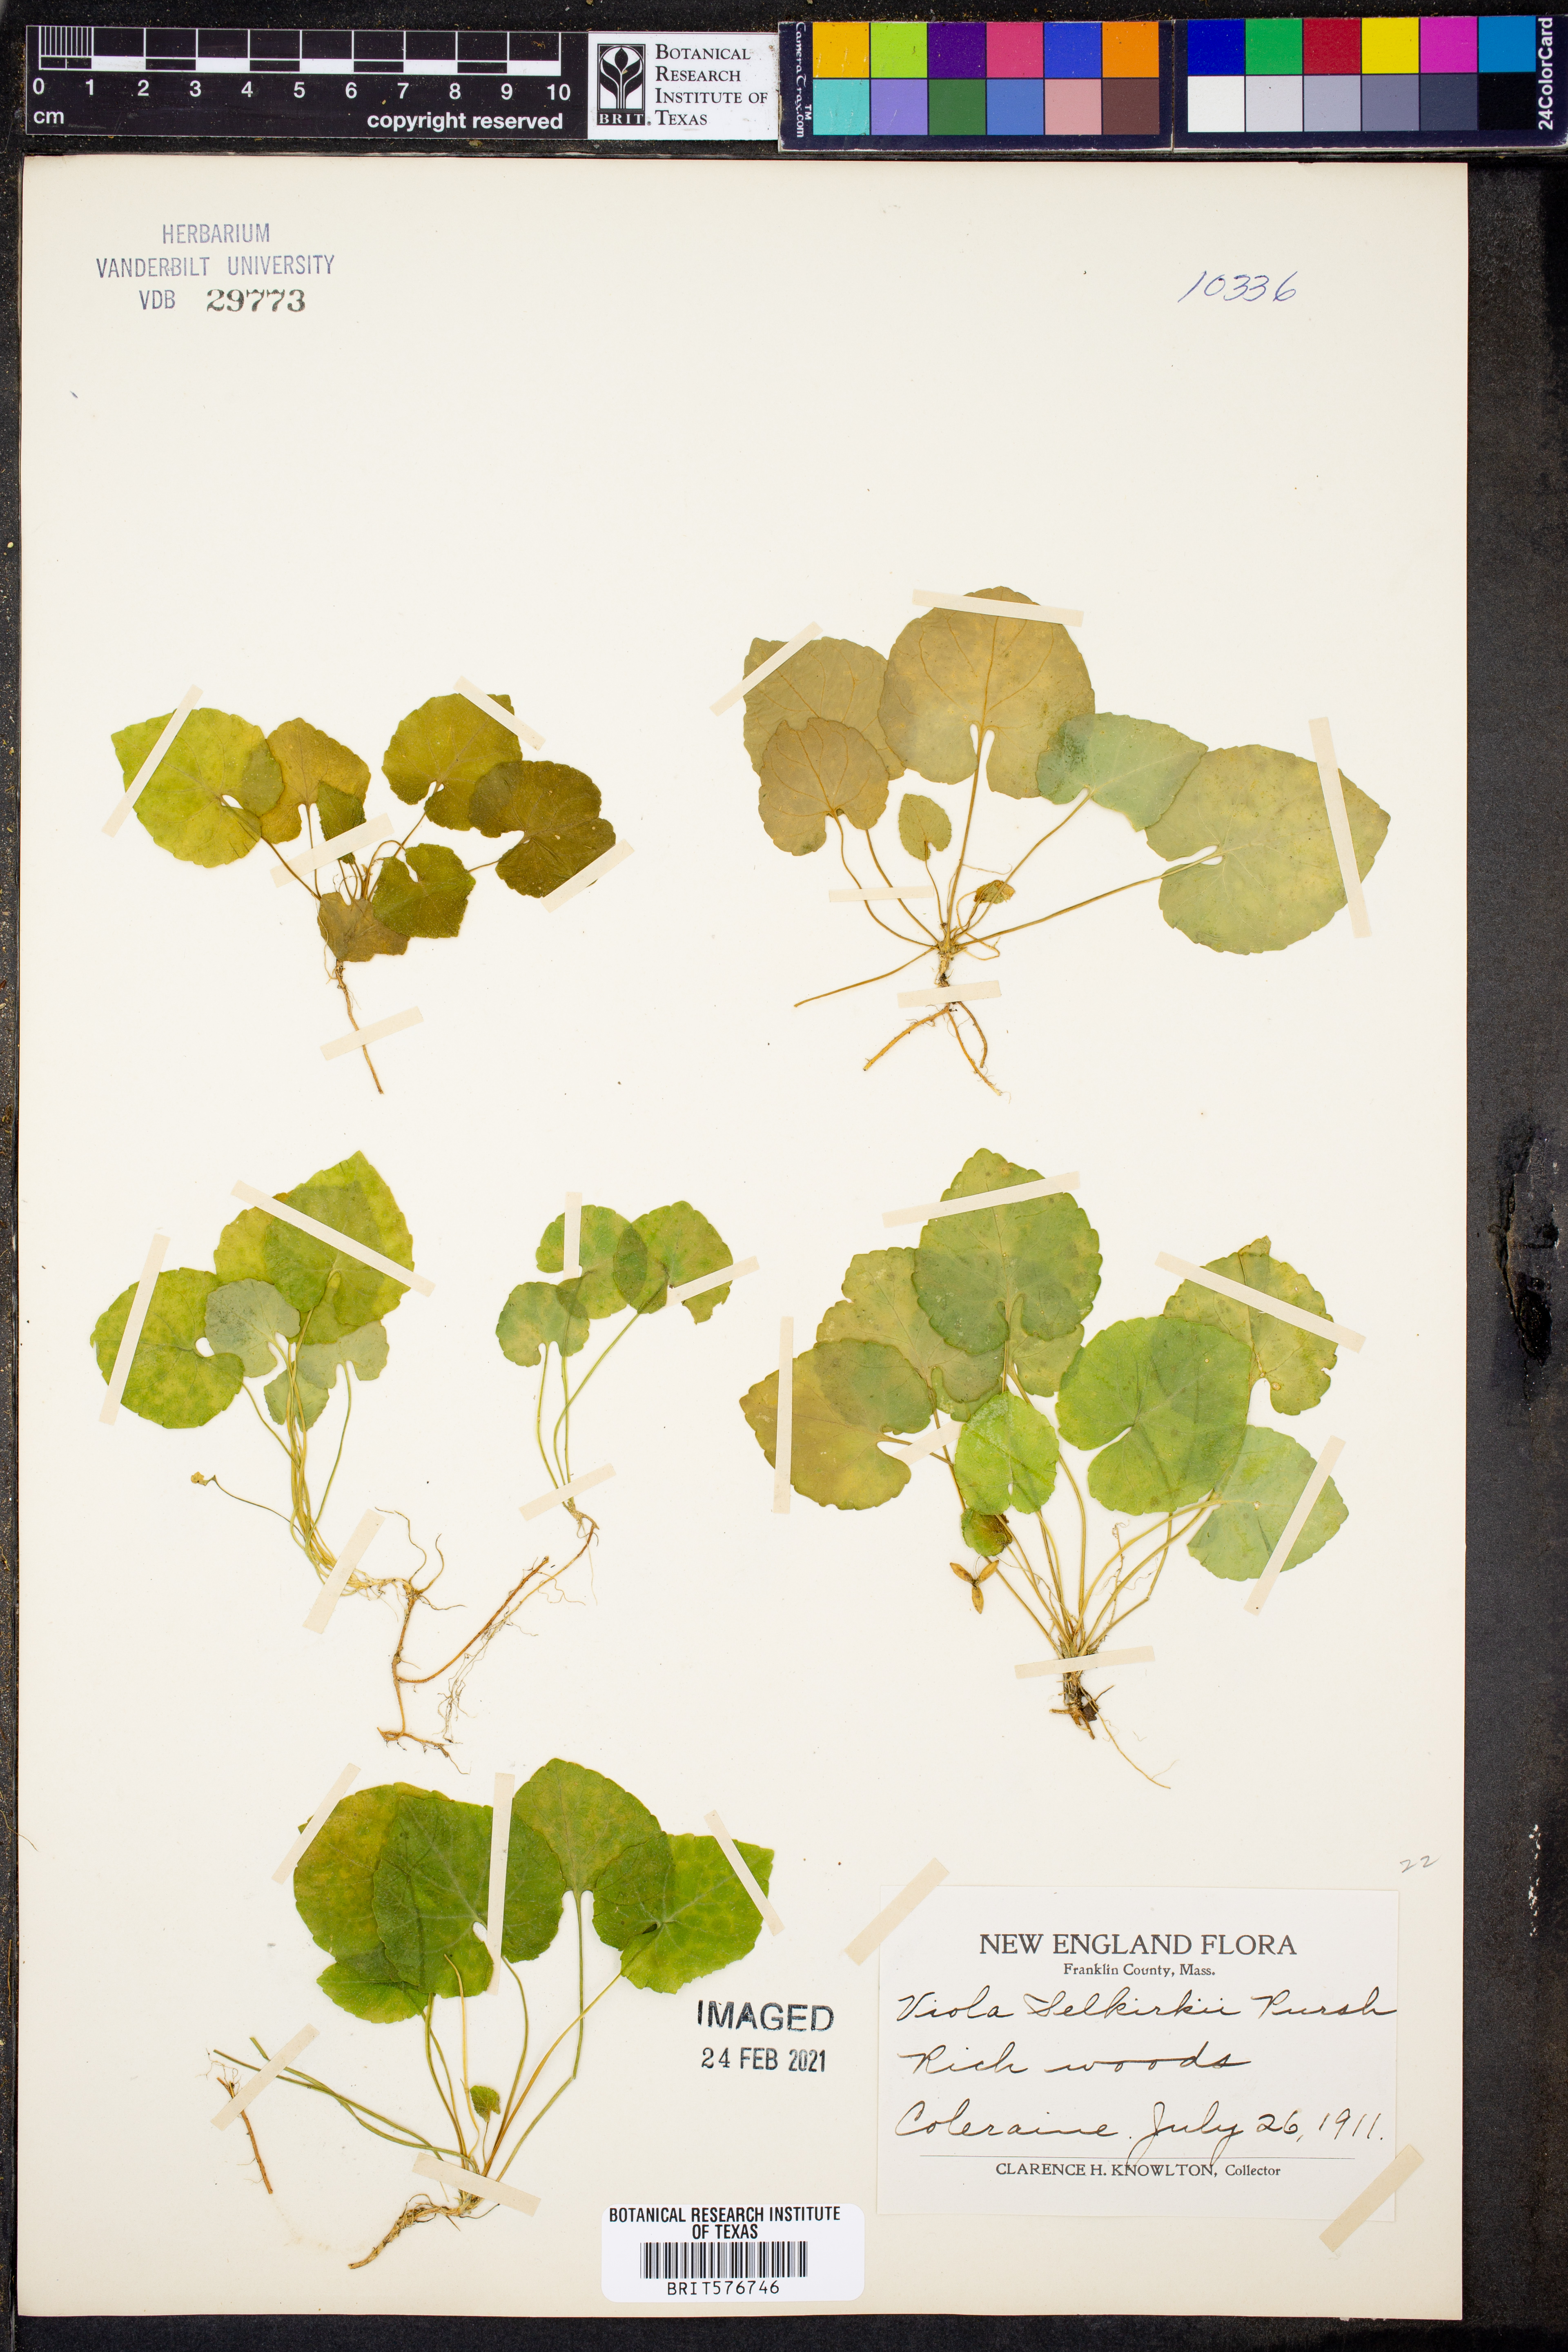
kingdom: Plantae
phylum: Tracheophyta
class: Magnoliopsida
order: Malpighiales
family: Violaceae
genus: Viola
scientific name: Viola selkirkii
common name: Selkirk's violet
